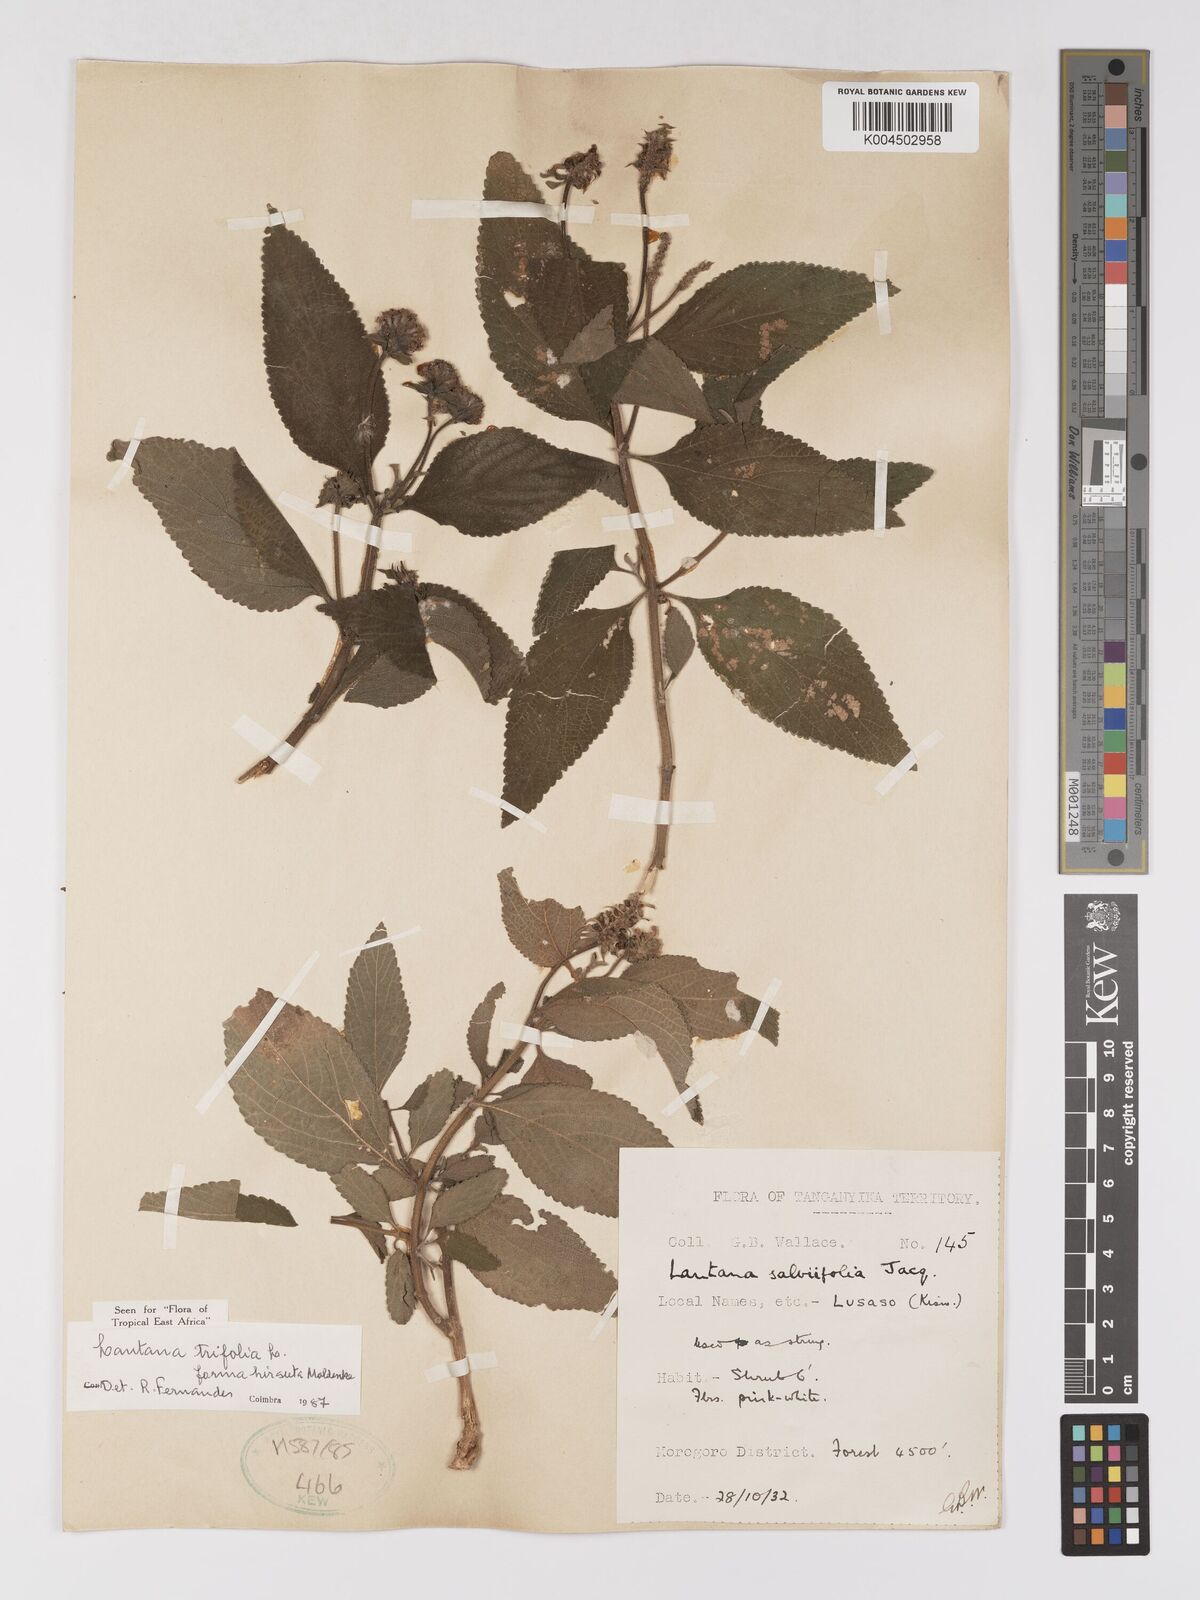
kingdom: Plantae
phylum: Tracheophyta
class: Magnoliopsida
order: Lamiales
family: Verbenaceae
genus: Lantana
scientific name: Lantana trifolia
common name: Sweet-sage
